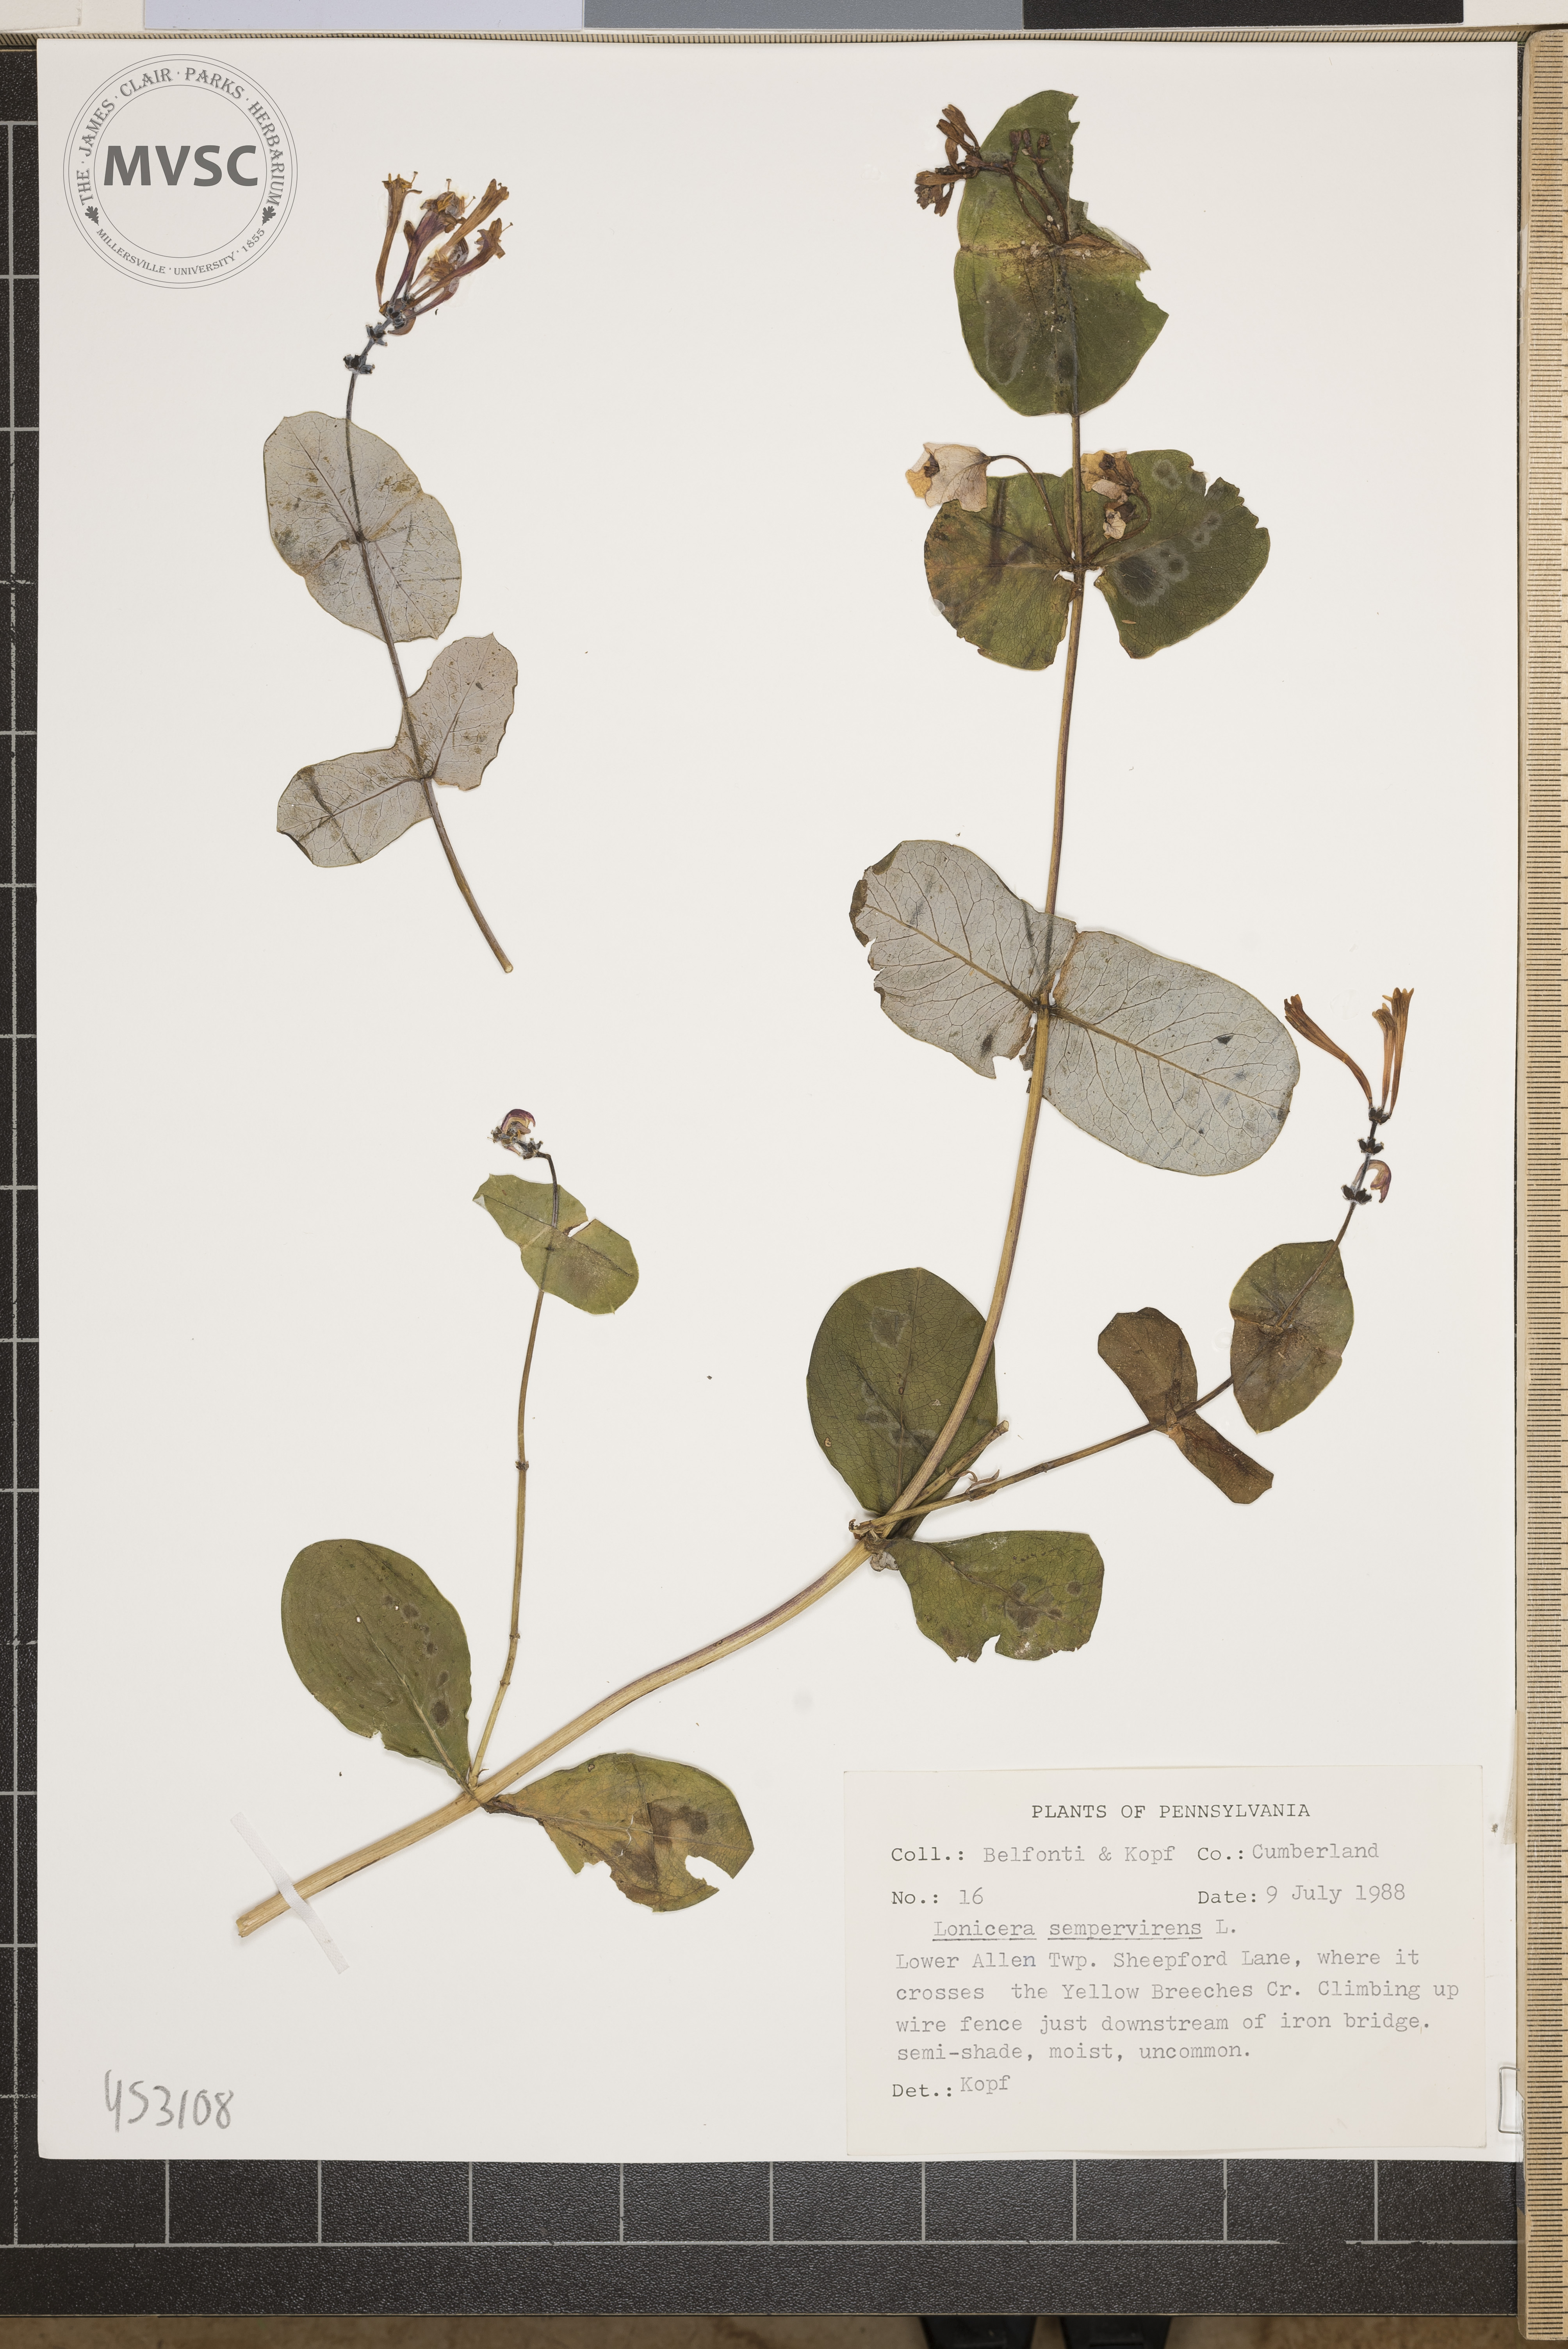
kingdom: Plantae
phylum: Tracheophyta
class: Magnoliopsida
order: Dipsacales
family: Caprifoliaceae
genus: Lonicera
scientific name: Lonicera sempervirens
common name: Coral honeysuckle
